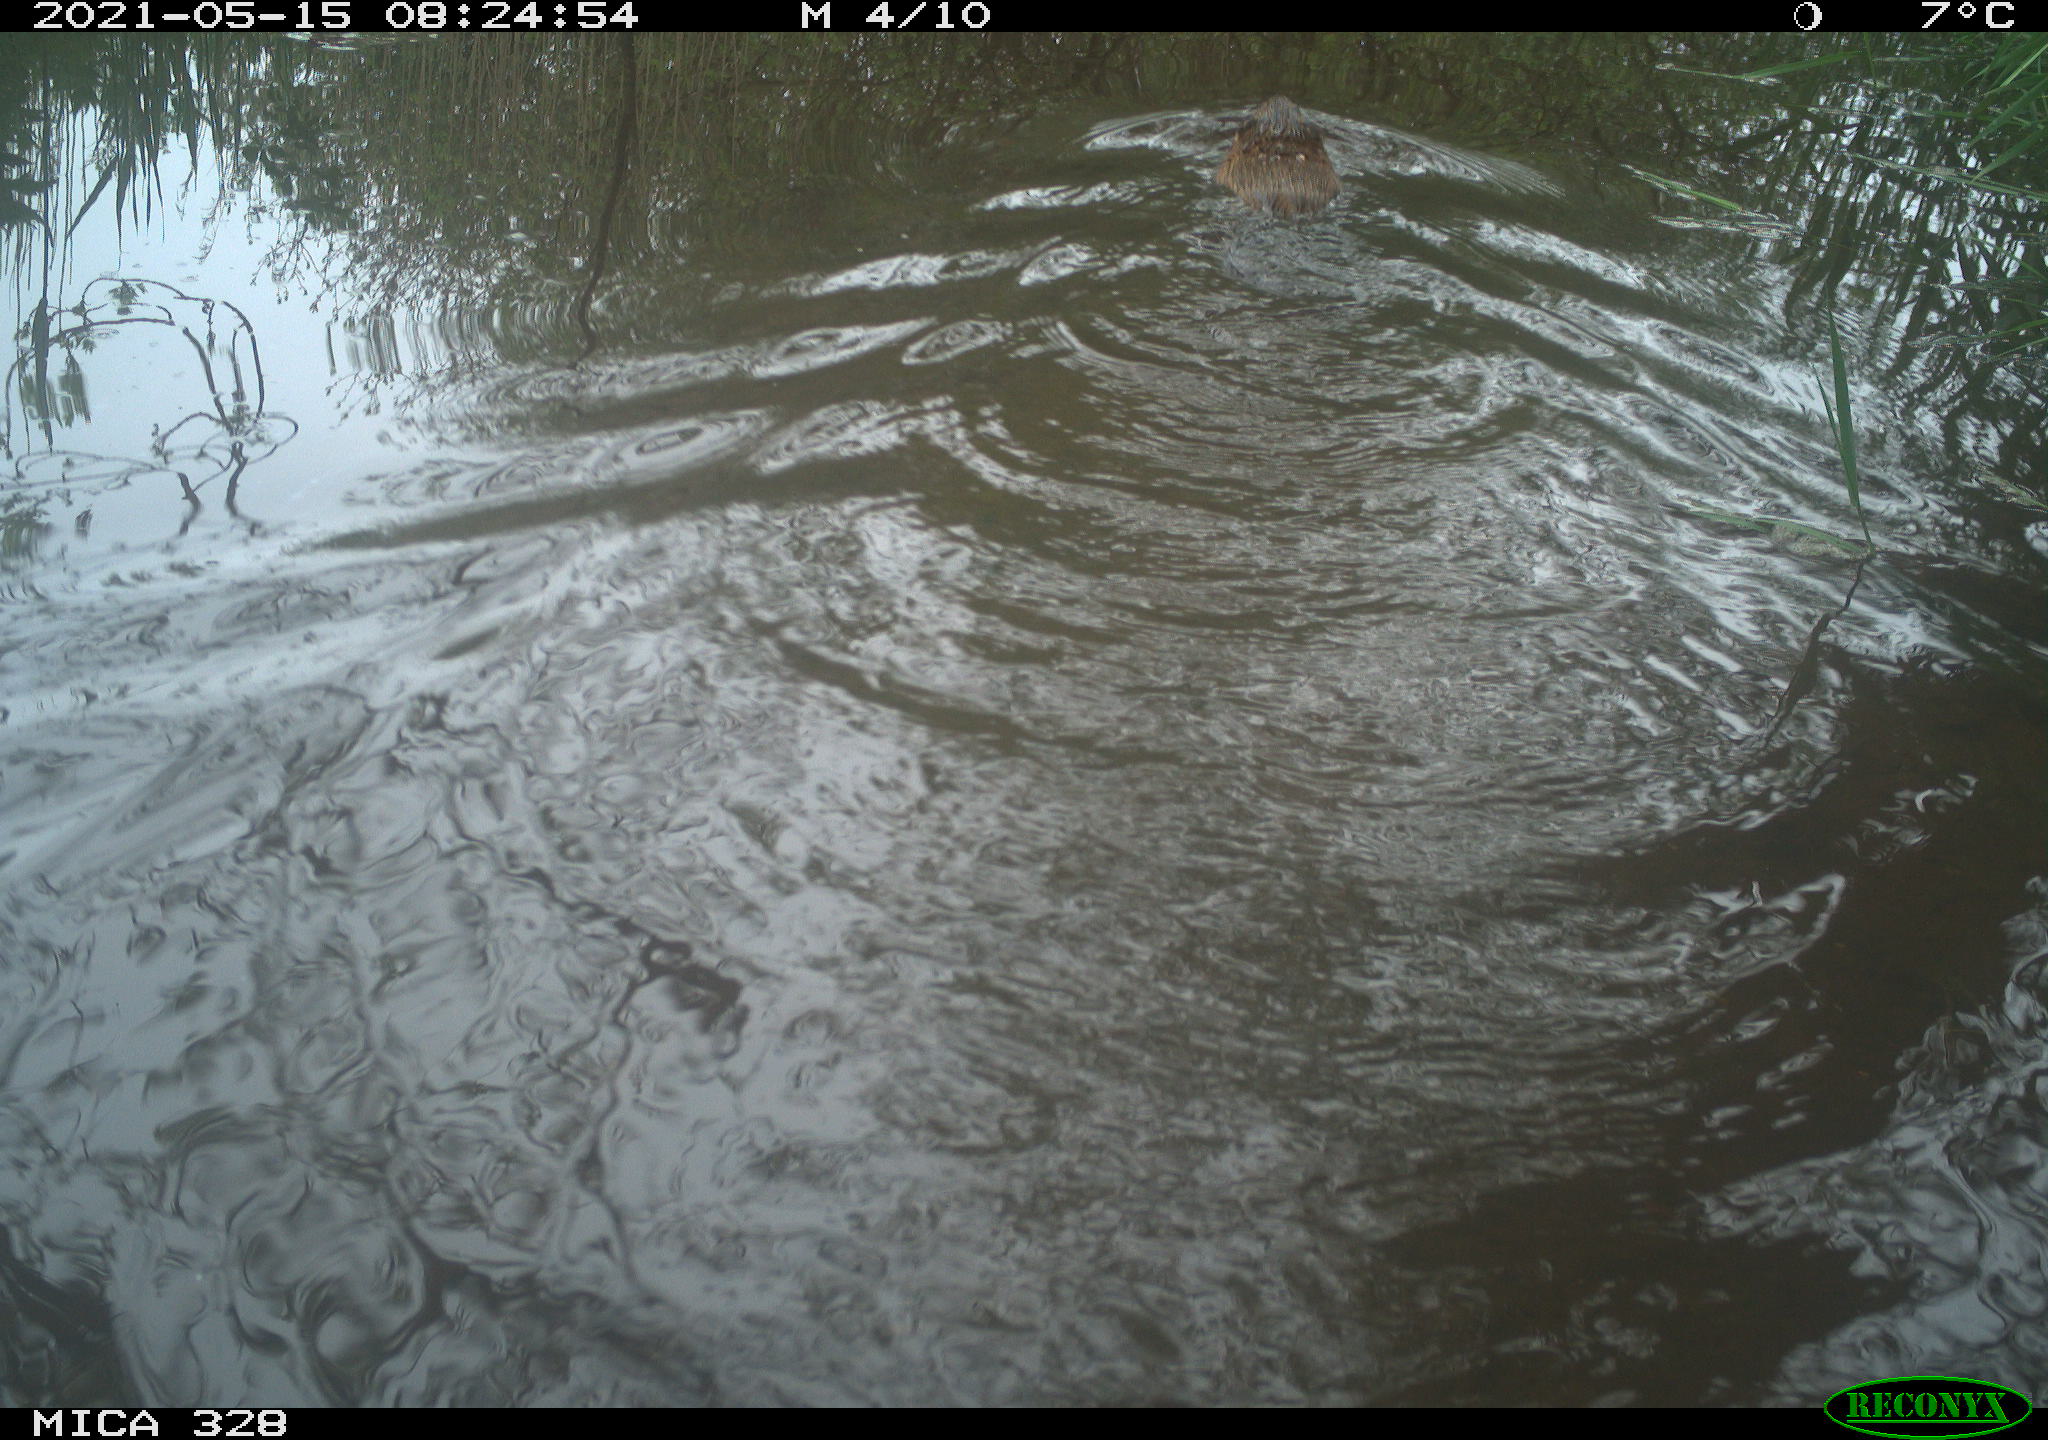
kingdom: Animalia
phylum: Chordata
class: Mammalia
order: Rodentia
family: Cricetidae
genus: Ondatra
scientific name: Ondatra zibethicus
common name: Muskrat
